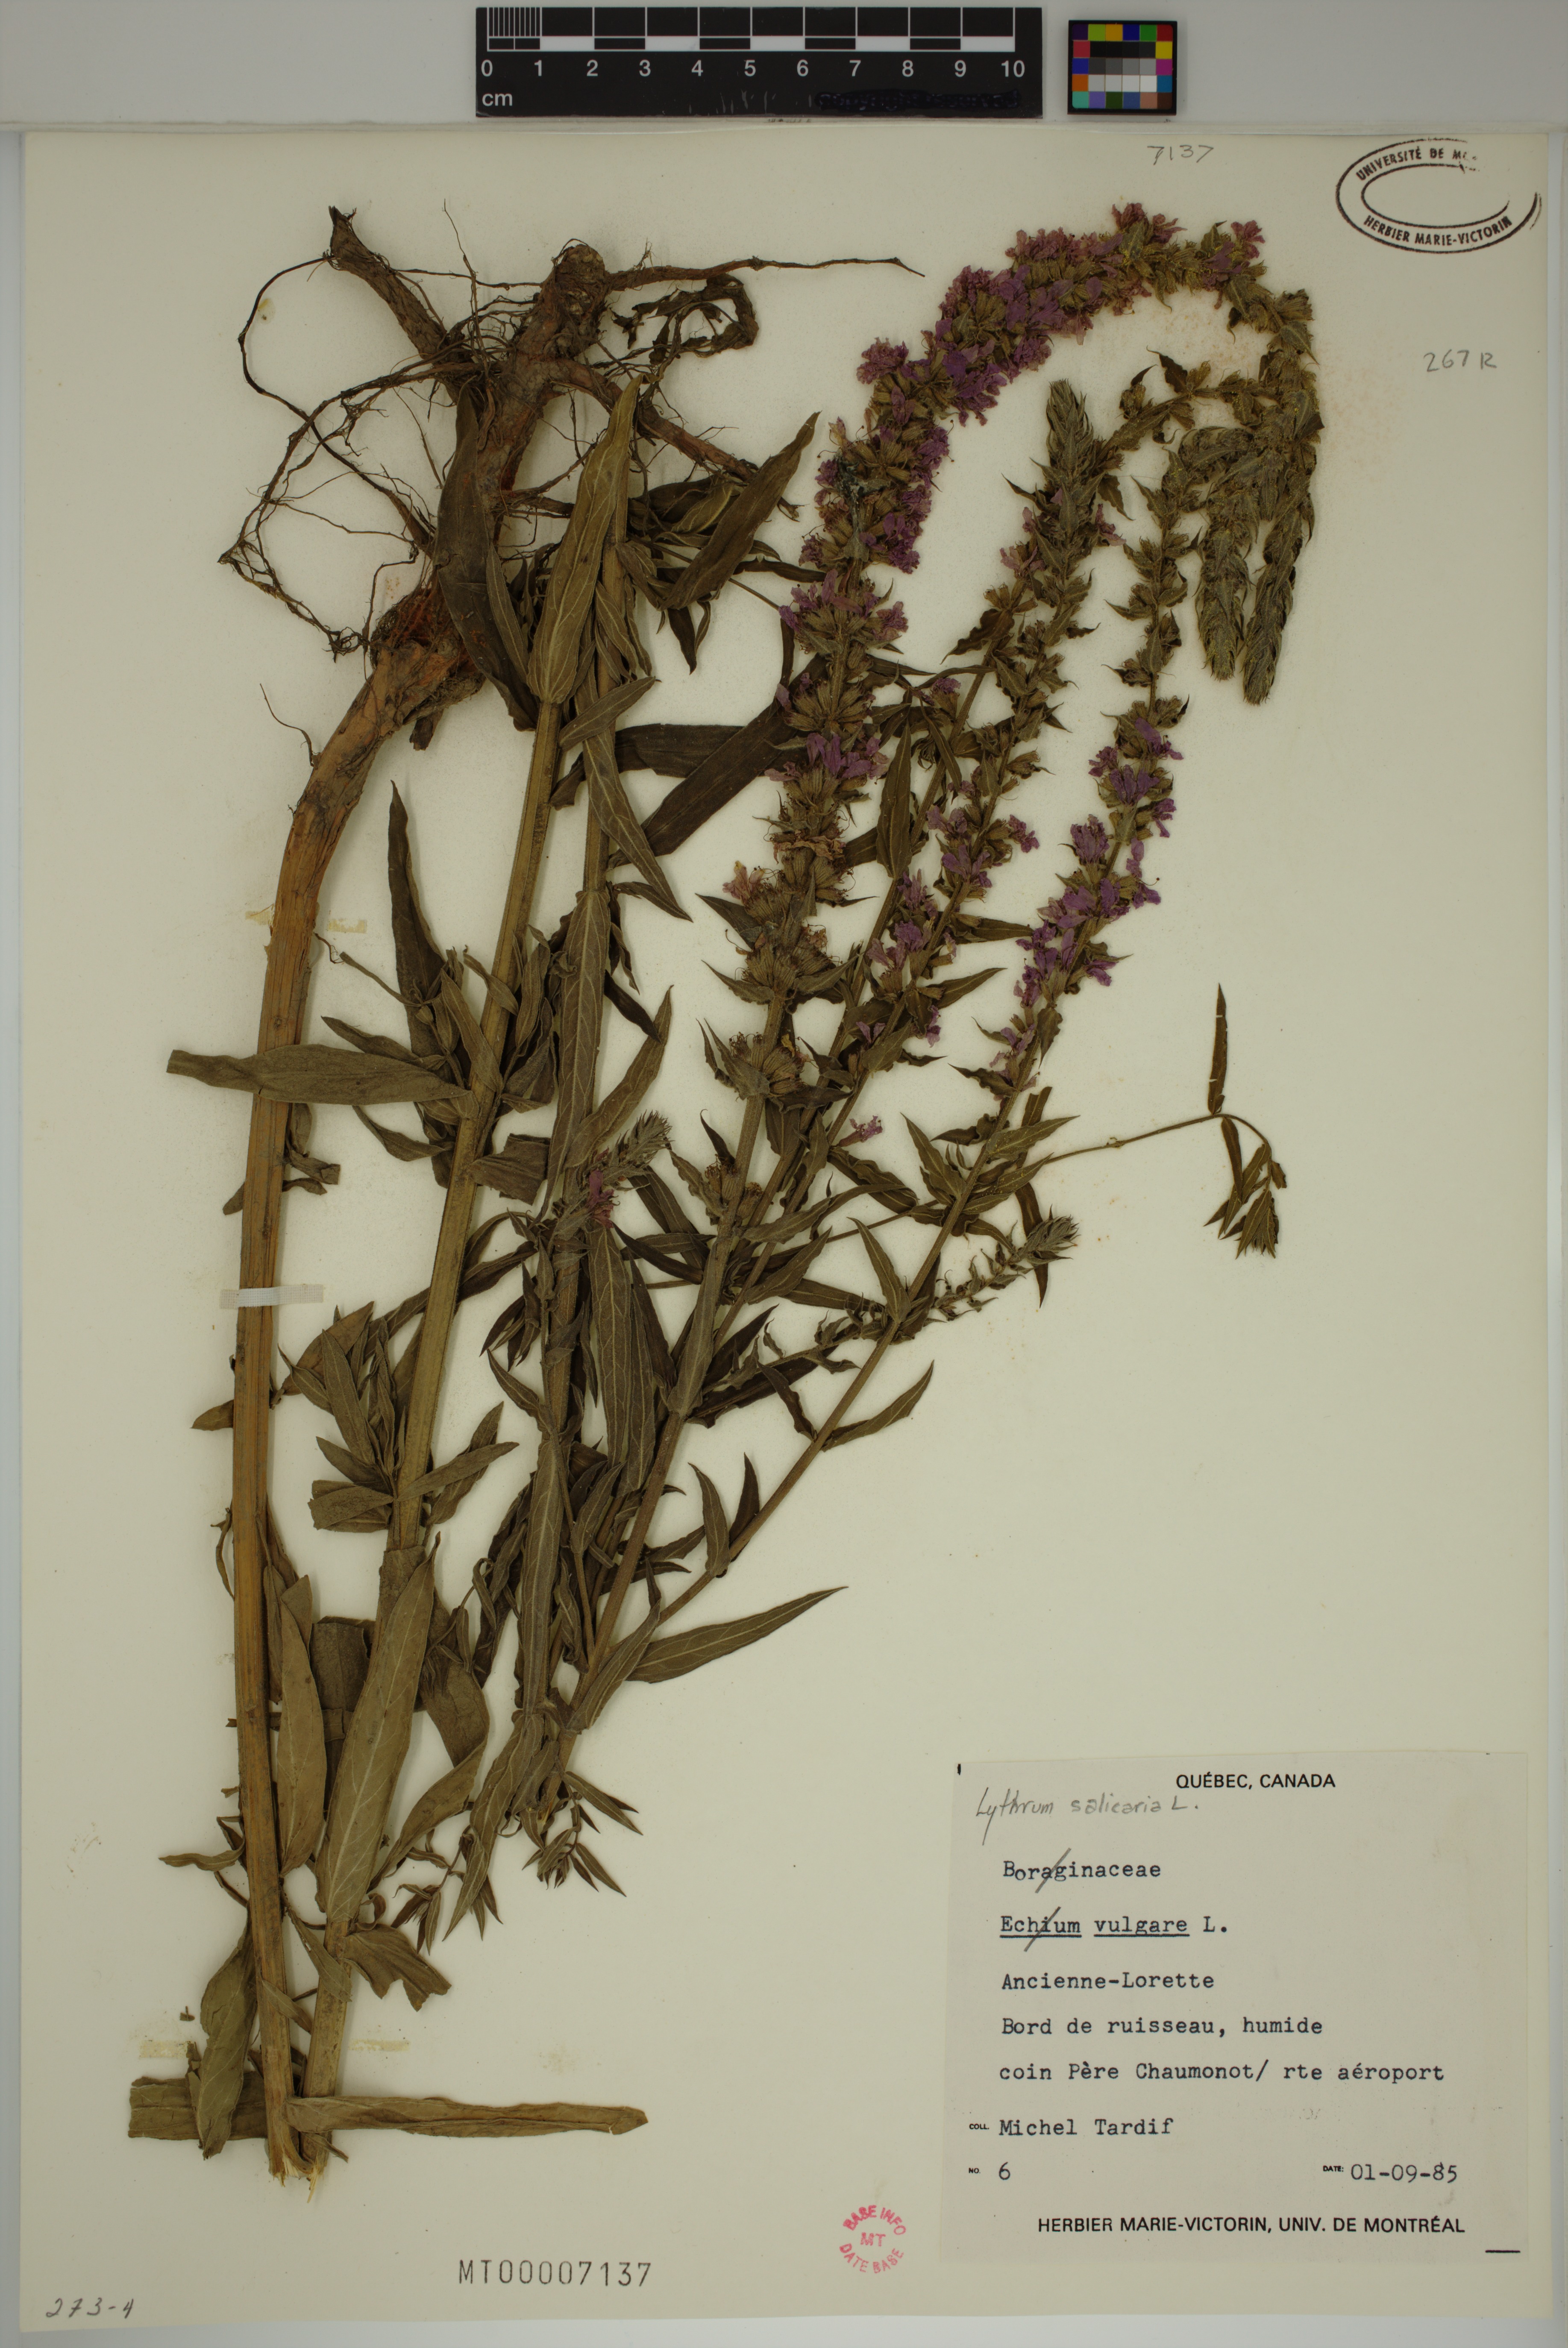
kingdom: Plantae
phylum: Tracheophyta
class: Magnoliopsida
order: Myrtales
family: Lythraceae
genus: Lythrum
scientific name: Lythrum salicaria
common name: Purple loosestrife
